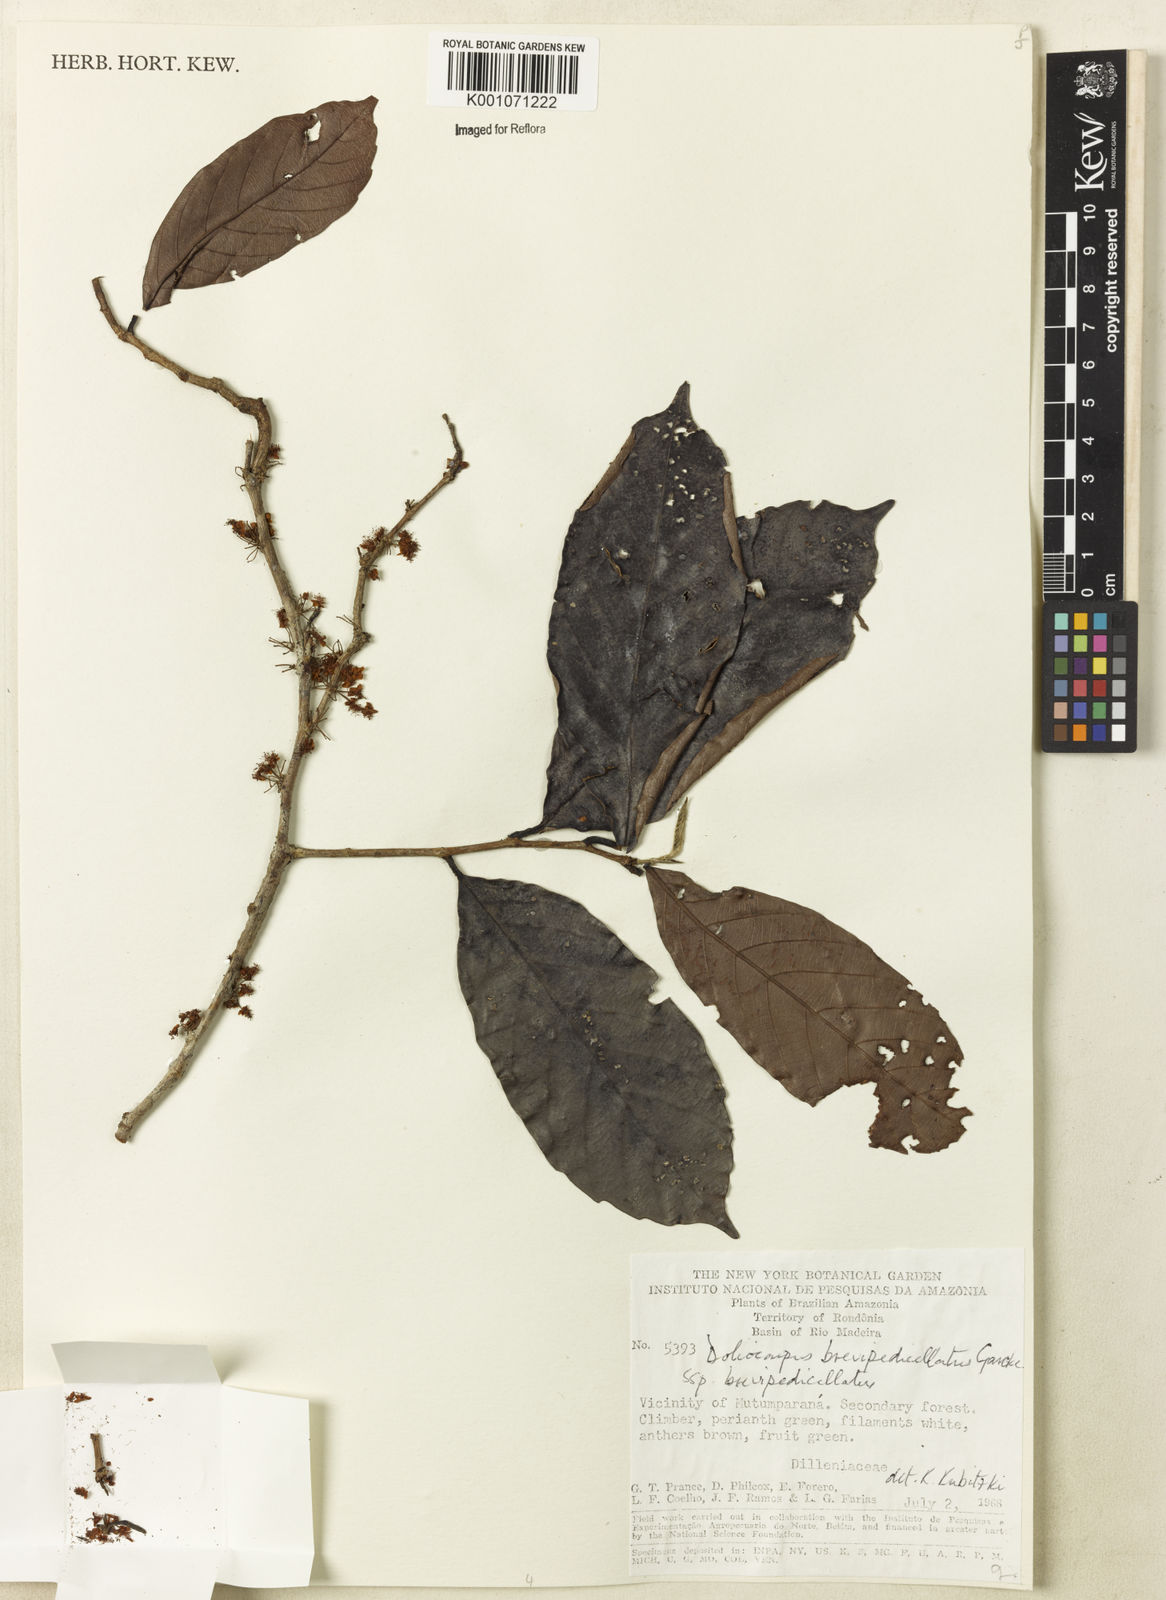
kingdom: Plantae
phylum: Tracheophyta
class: Magnoliopsida
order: Dilleniales
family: Dilleniaceae
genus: Doliocarpus
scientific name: Doliocarpus brevipedicellatus
